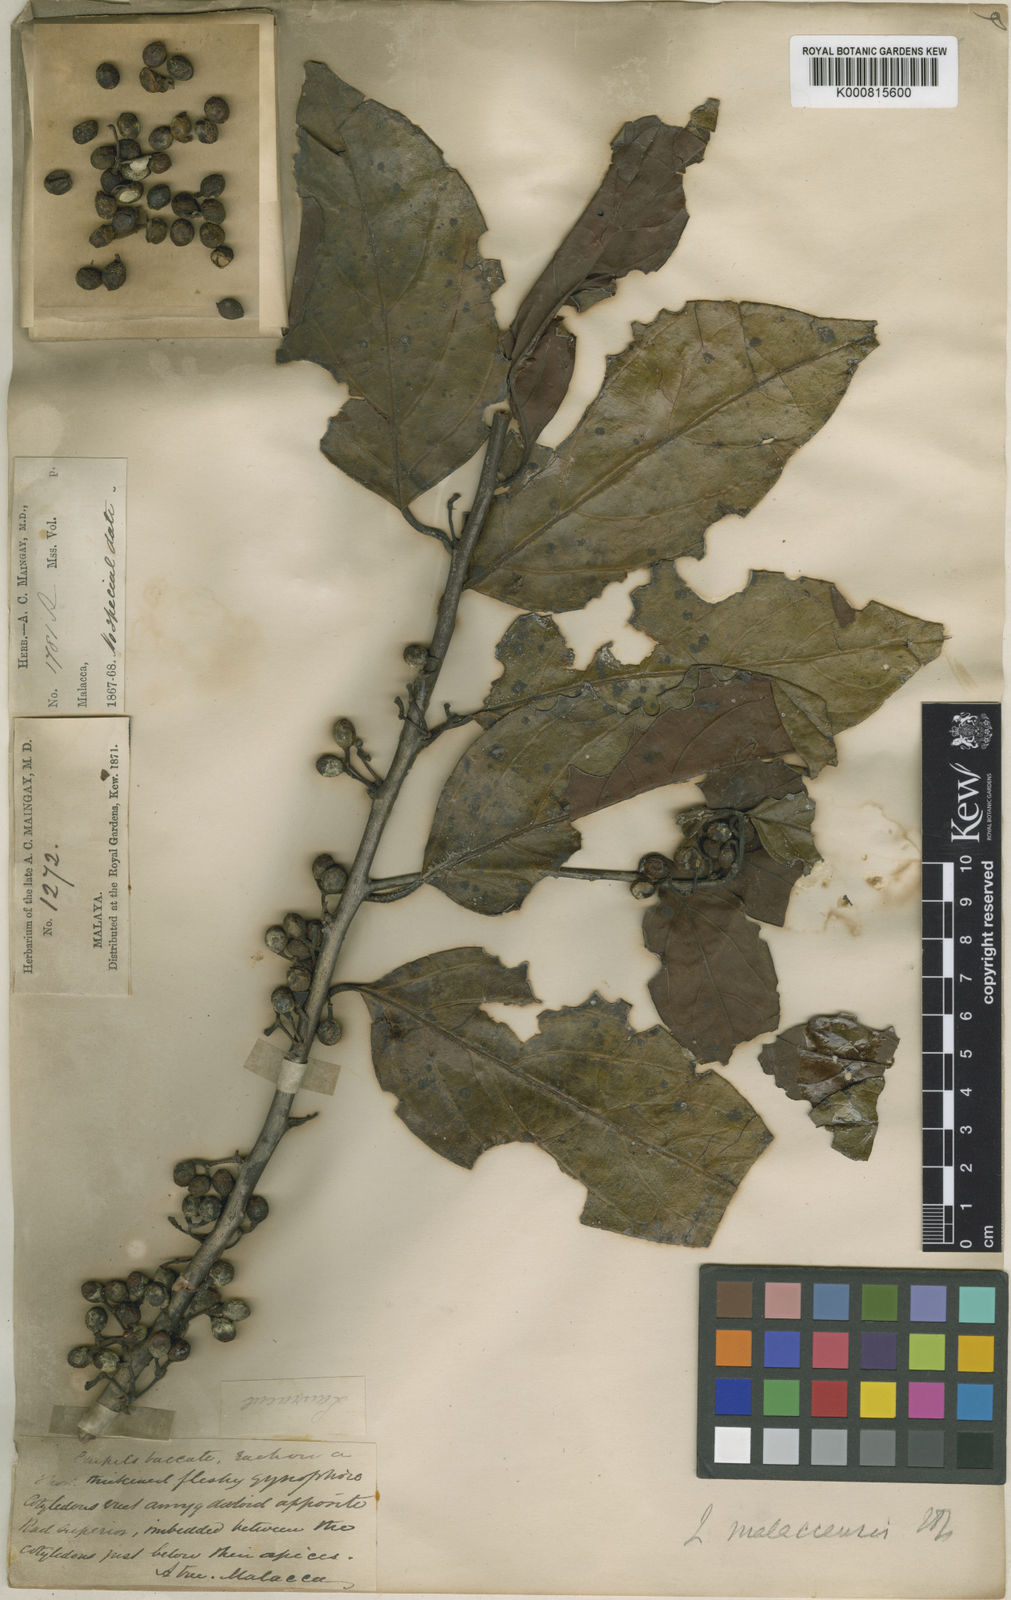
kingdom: Plantae
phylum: Tracheophyta
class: Magnoliopsida
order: Laurales
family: Lauraceae
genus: Lindera
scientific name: Lindera lucida
